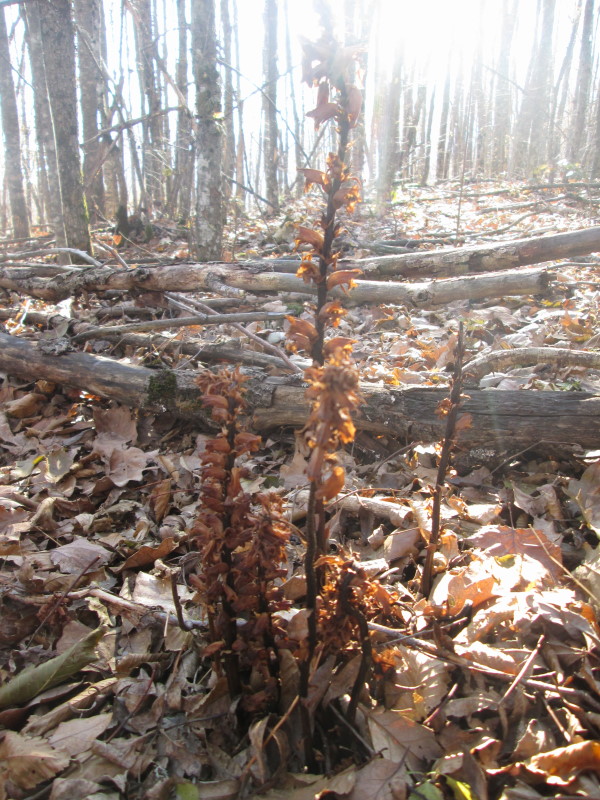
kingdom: Plantae
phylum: Tracheophyta
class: Magnoliopsida
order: Lamiales
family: Orobanchaceae
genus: Lathraea
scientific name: Lathraea
